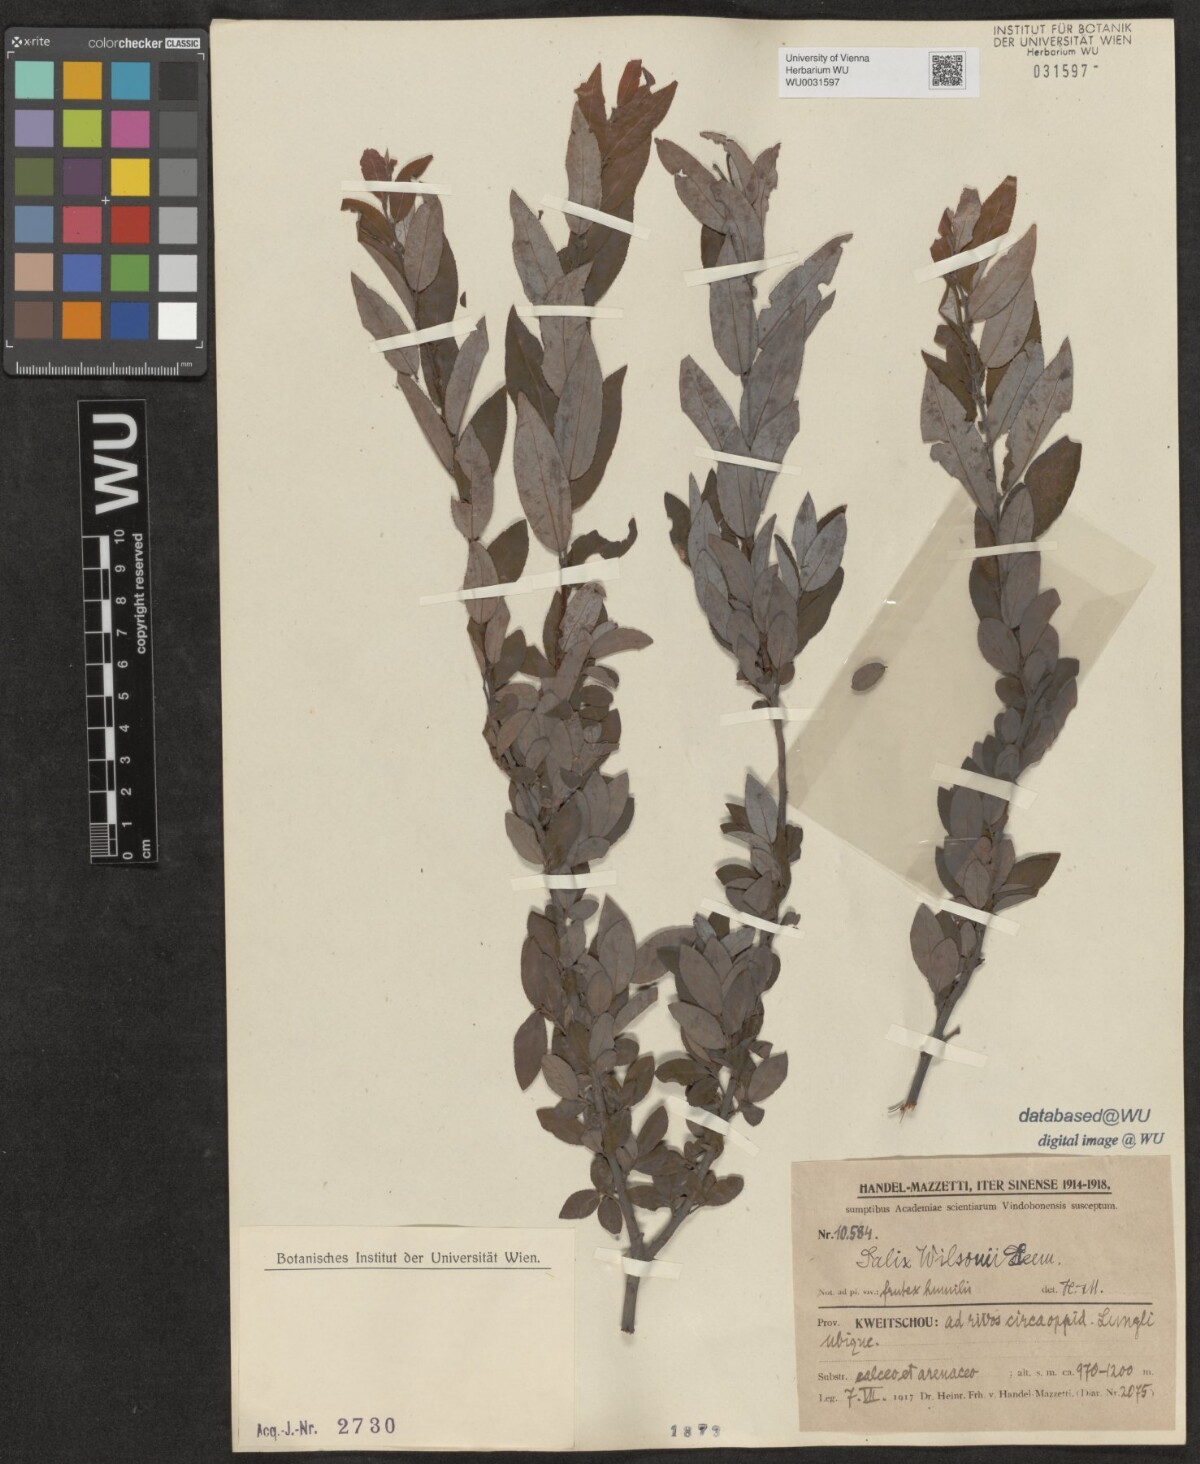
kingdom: Plantae
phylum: Tracheophyta
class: Magnoliopsida
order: Malpighiales
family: Salicaceae
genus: Salix
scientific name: Salix wilsonii
